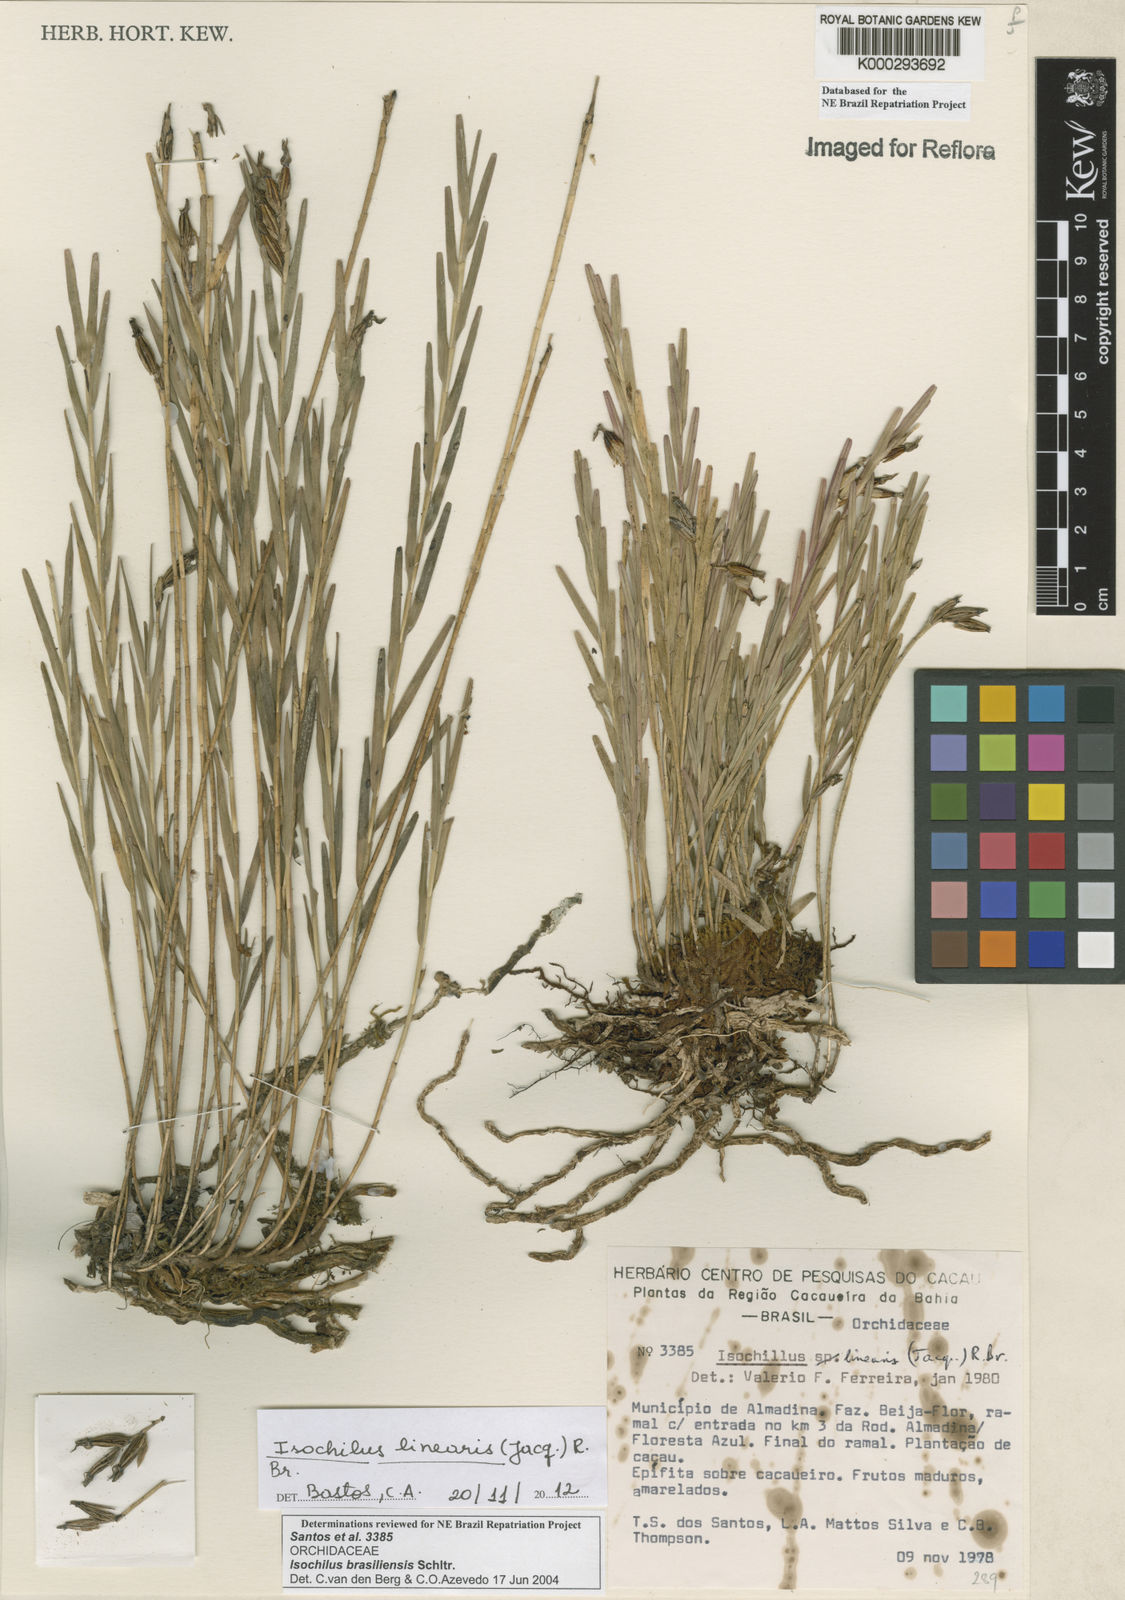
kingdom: Plantae
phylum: Tracheophyta
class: Liliopsida
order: Asparagales
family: Orchidaceae
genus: Isochilus
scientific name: Isochilus linearis
